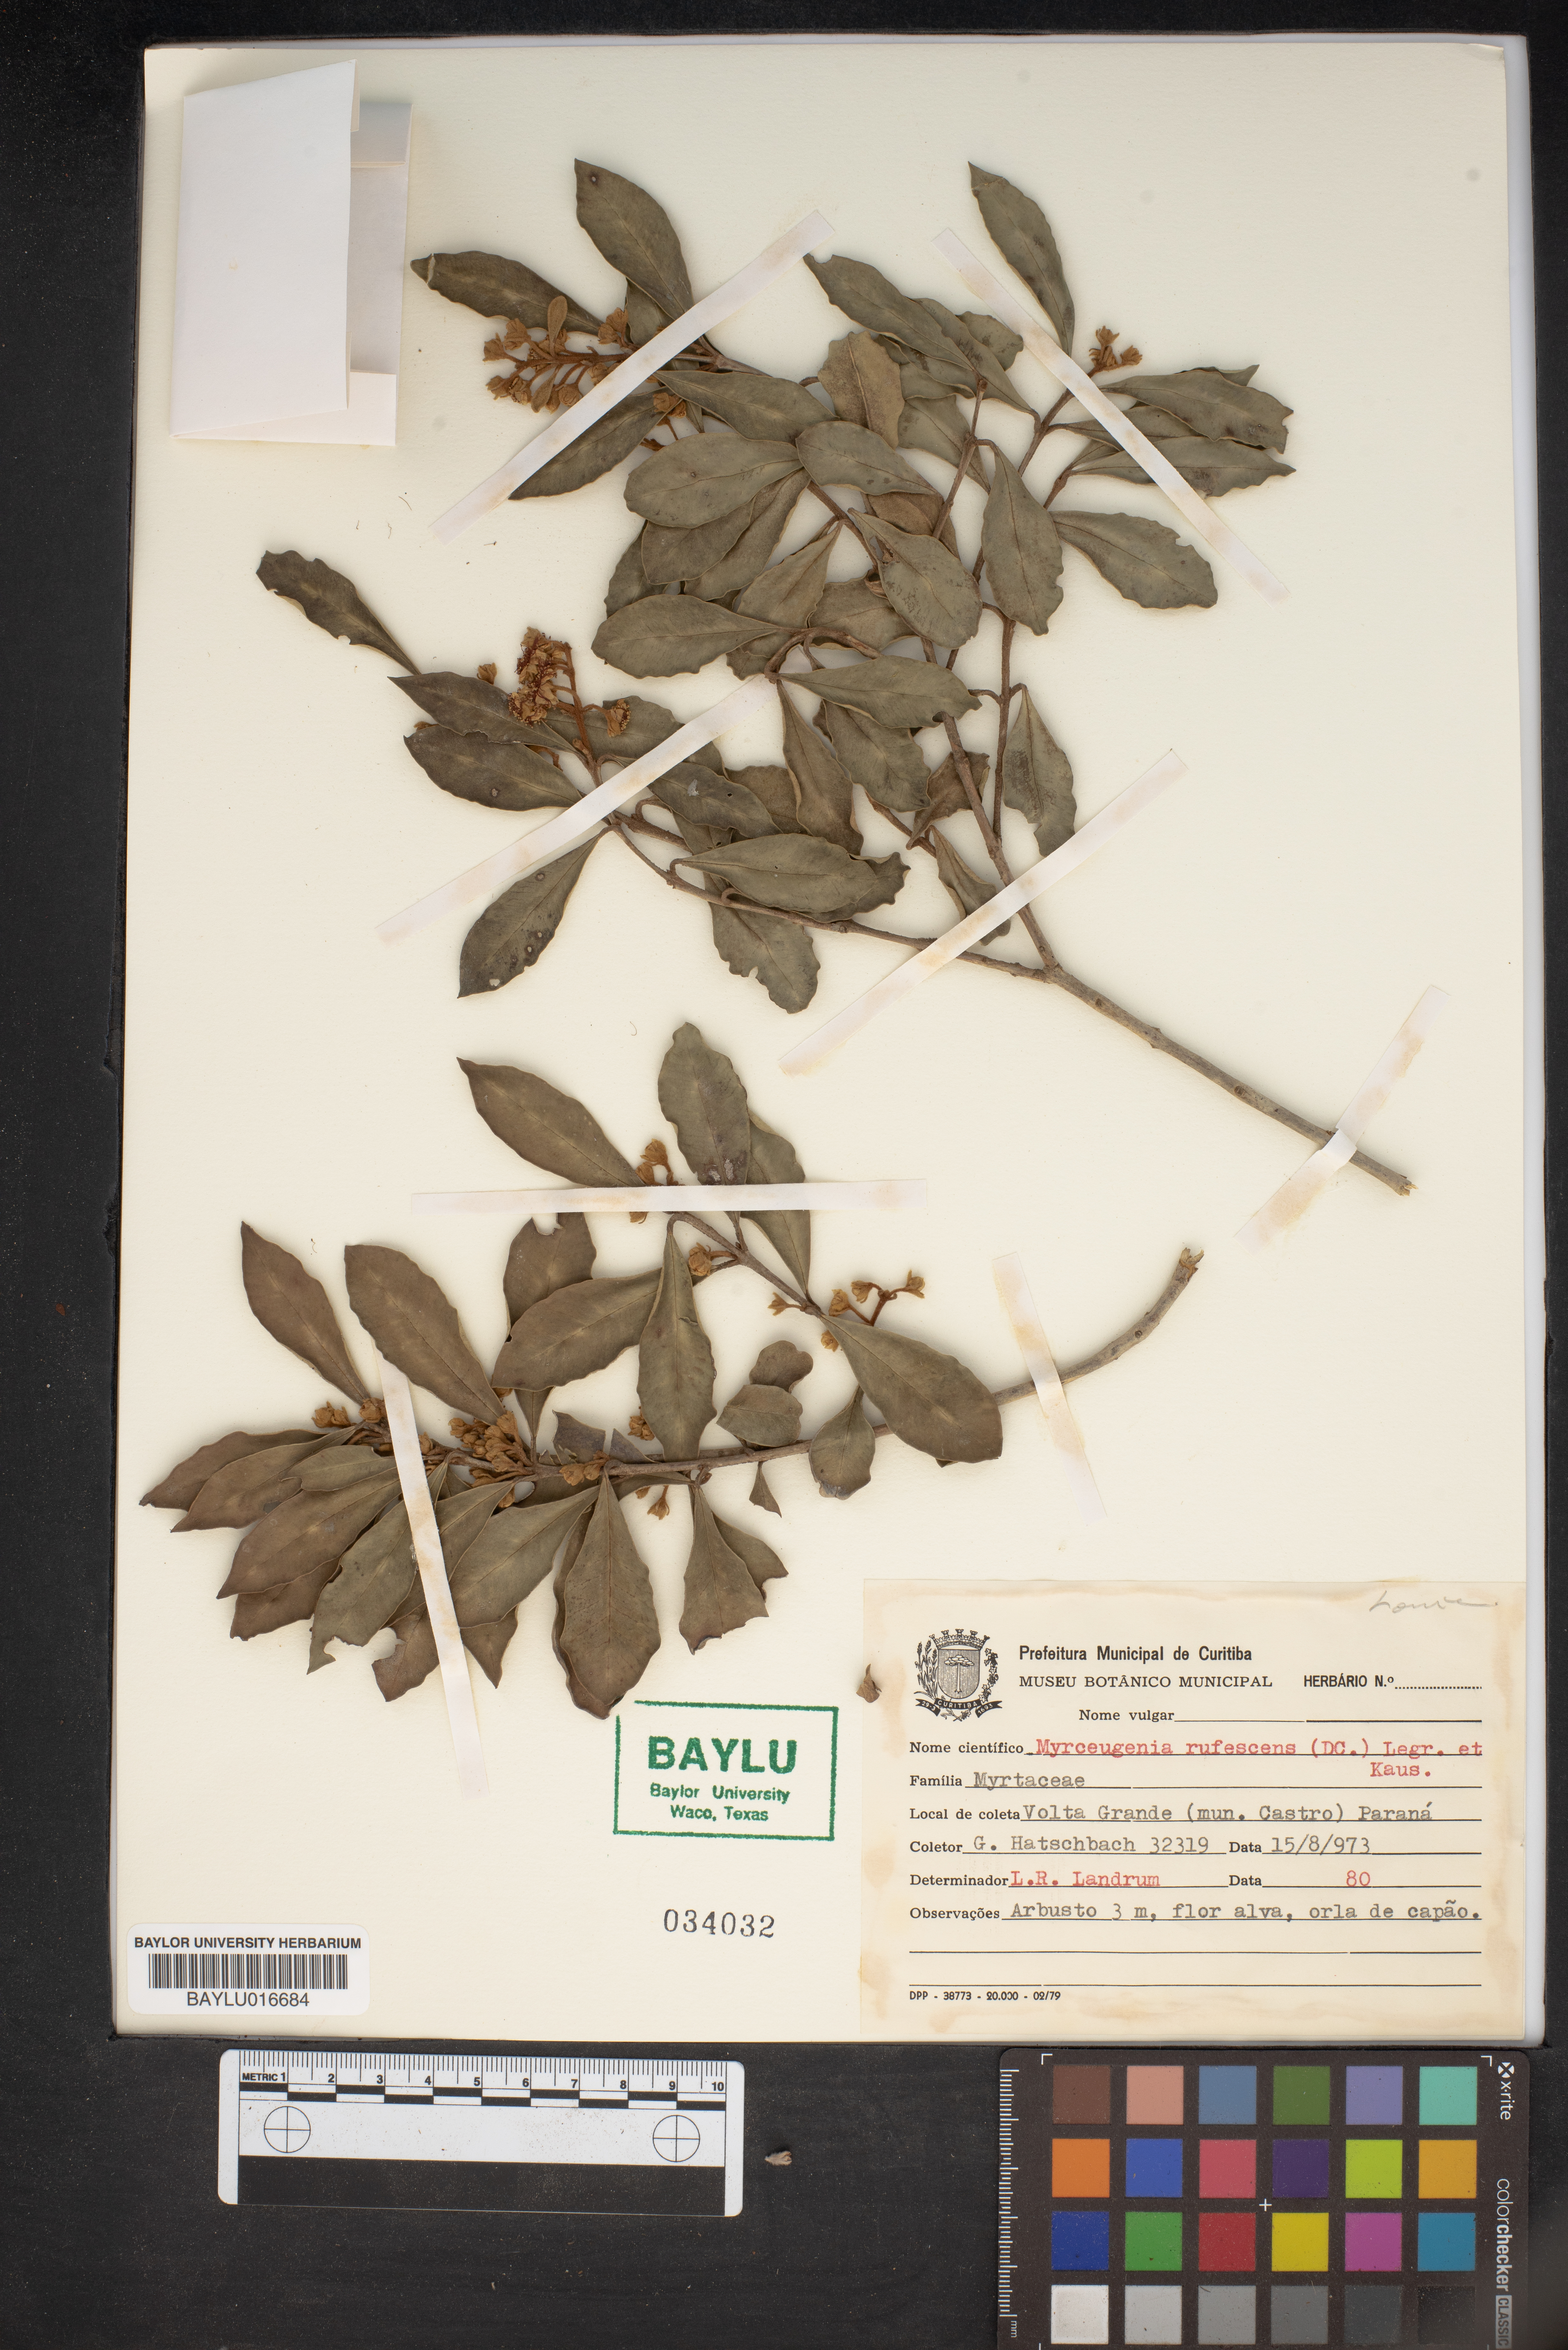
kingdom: Plantae
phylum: Tracheophyta
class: Magnoliopsida
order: Myrtales
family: Myrtaceae
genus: Myrceugenia
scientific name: Myrceugenia rufescens
